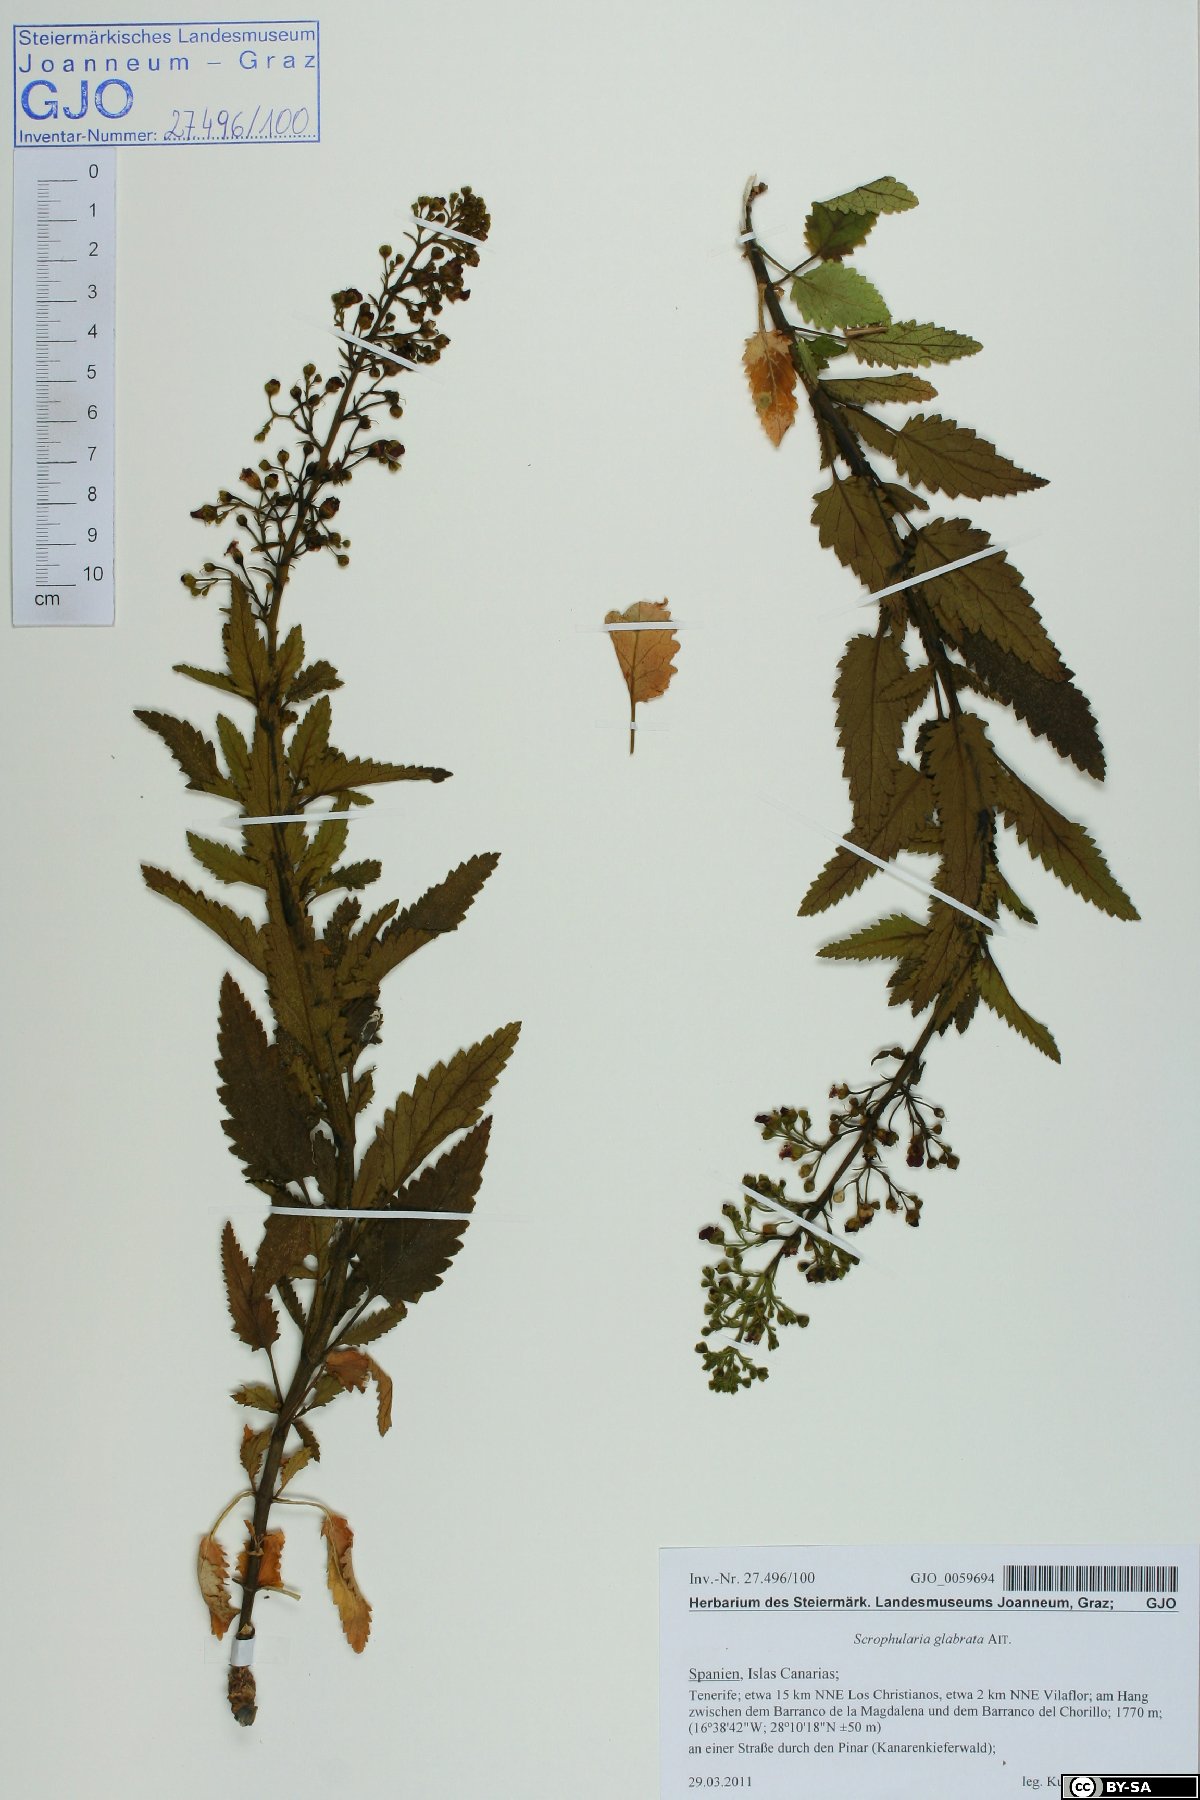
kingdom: Plantae
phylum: Tracheophyta
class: Magnoliopsida
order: Lamiales
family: Scrophulariaceae
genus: Scrophularia
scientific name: Scrophularia glabrata
